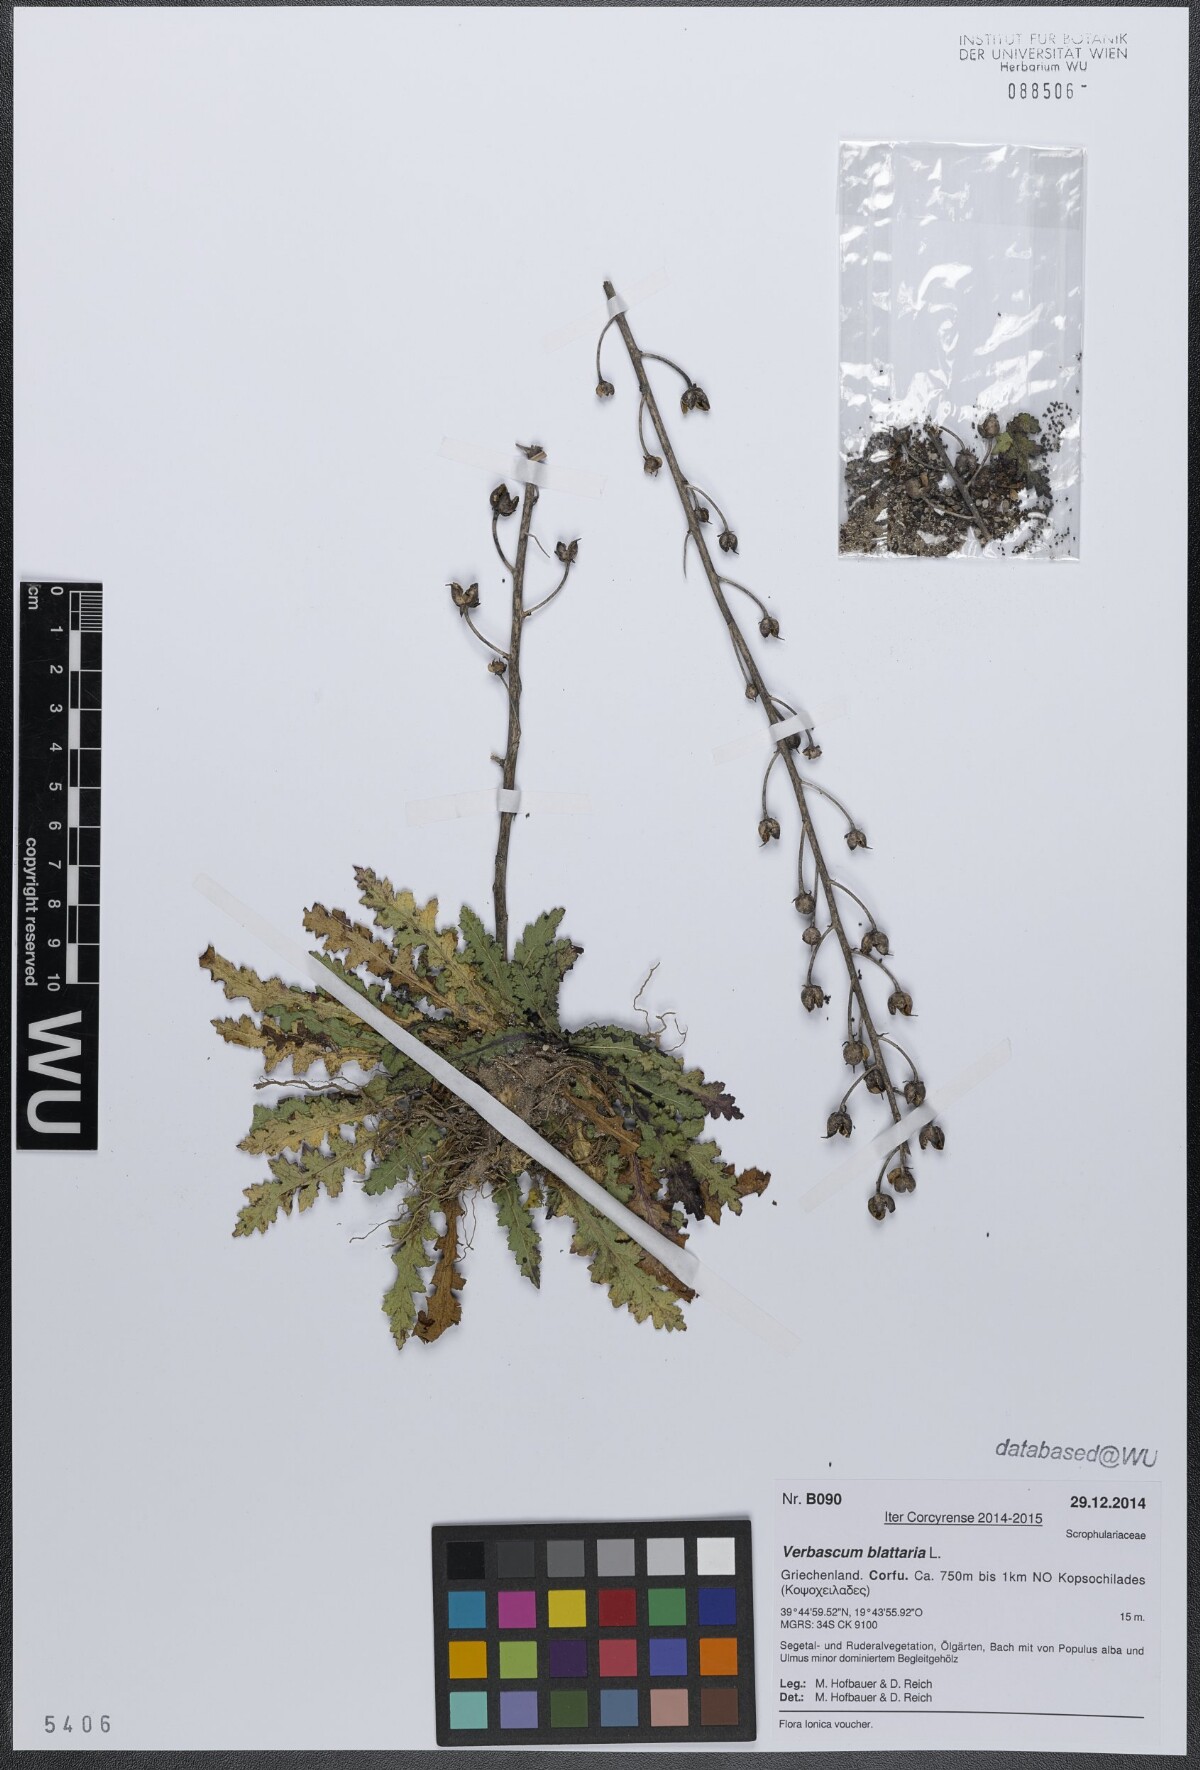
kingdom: Plantae
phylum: Tracheophyta
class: Magnoliopsida
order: Lamiales
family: Scrophulariaceae
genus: Verbascum
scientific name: Verbascum blattaria
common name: Moth mullein
